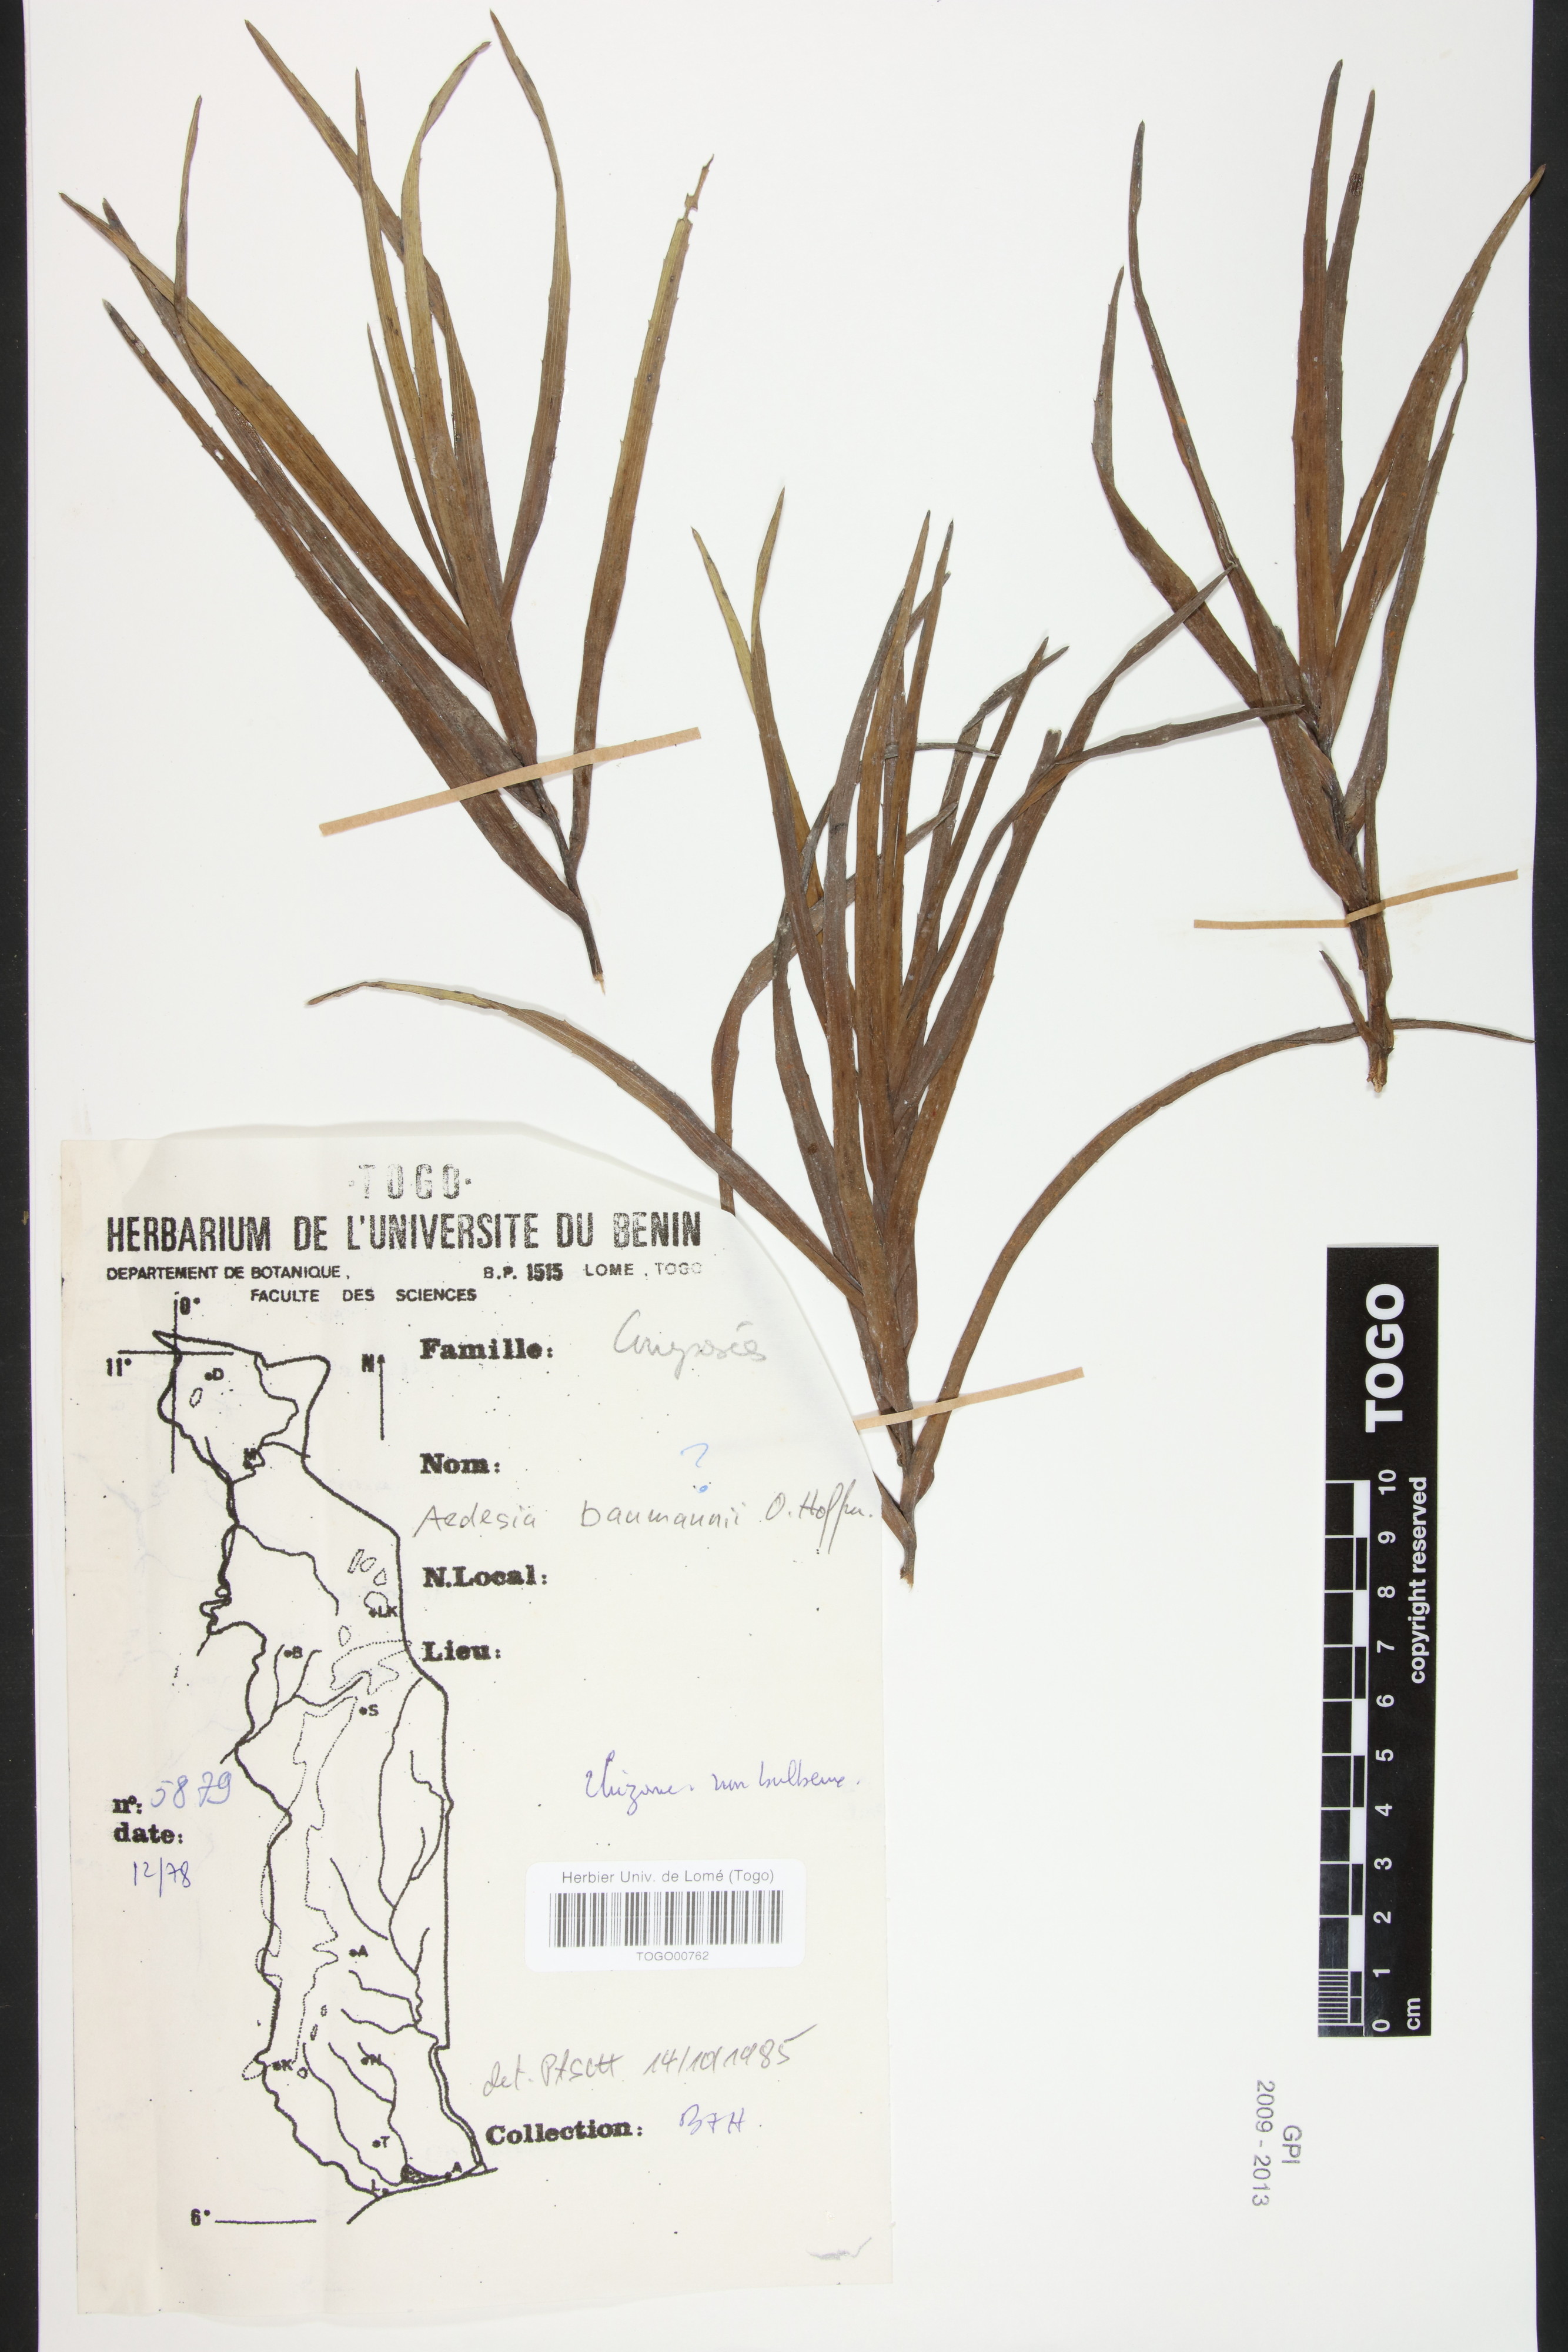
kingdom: Plantae
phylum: Tracheophyta
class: Magnoliopsida
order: Asterales
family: Asteraceae
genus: Aedesia
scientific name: Aedesia glabra
